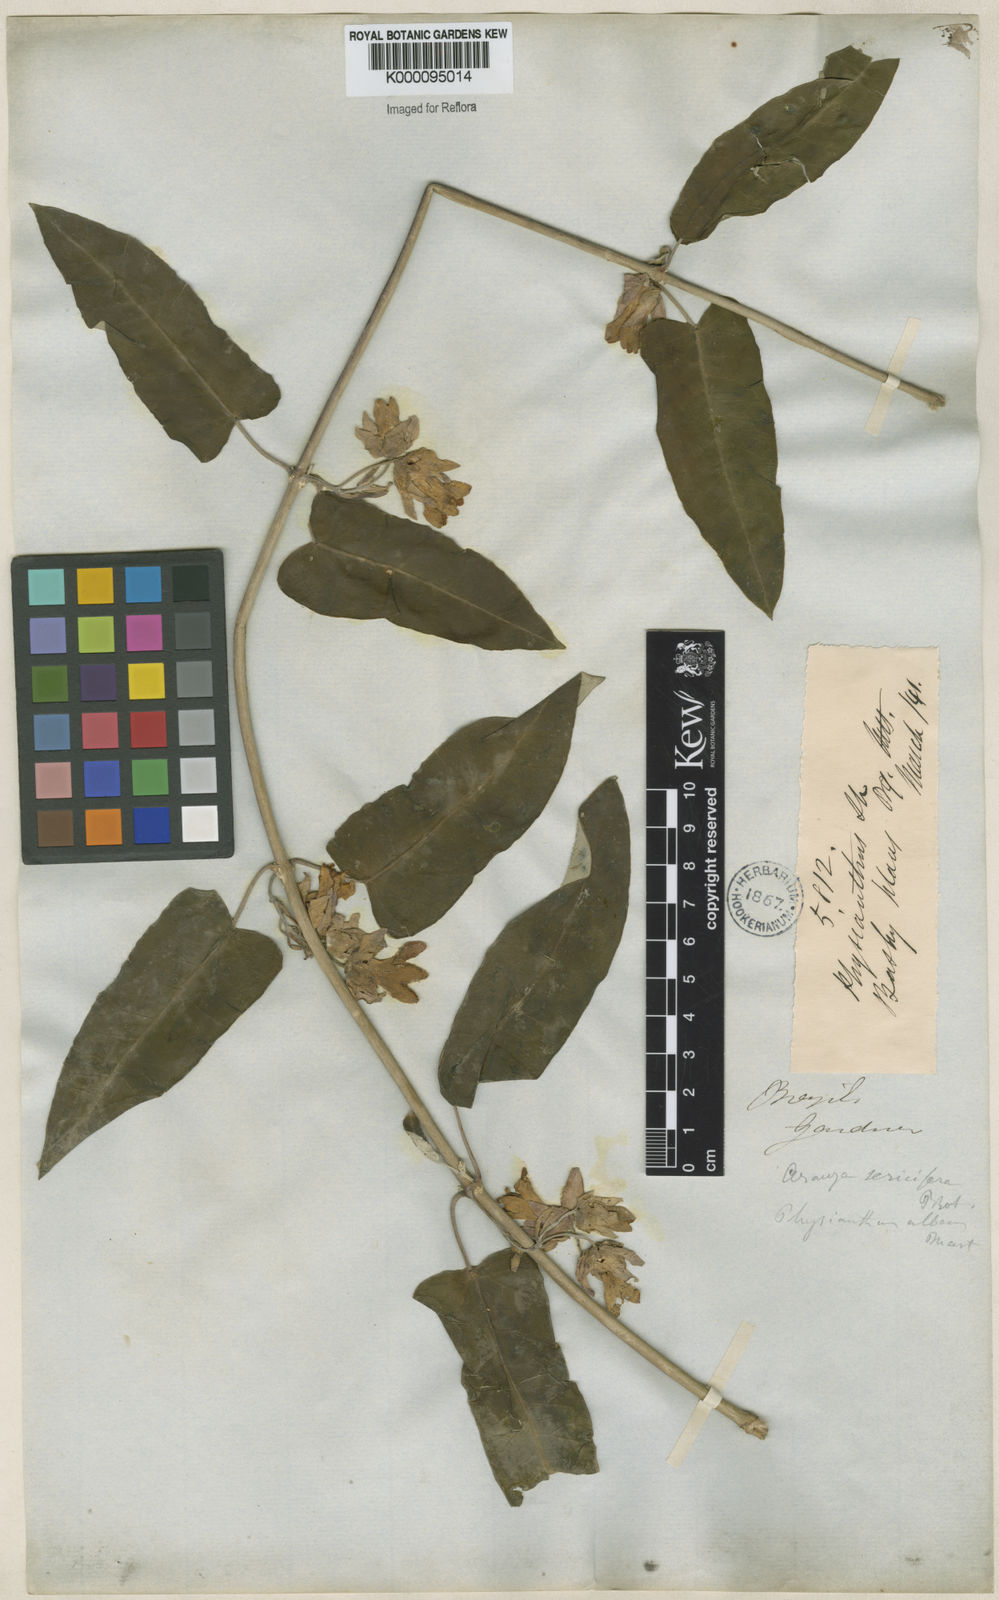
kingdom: Plantae
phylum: Tracheophyta
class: Magnoliopsida
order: Gentianales
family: Apocynaceae
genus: Araujia
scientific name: Araujia sericifera
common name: White bladderflower
